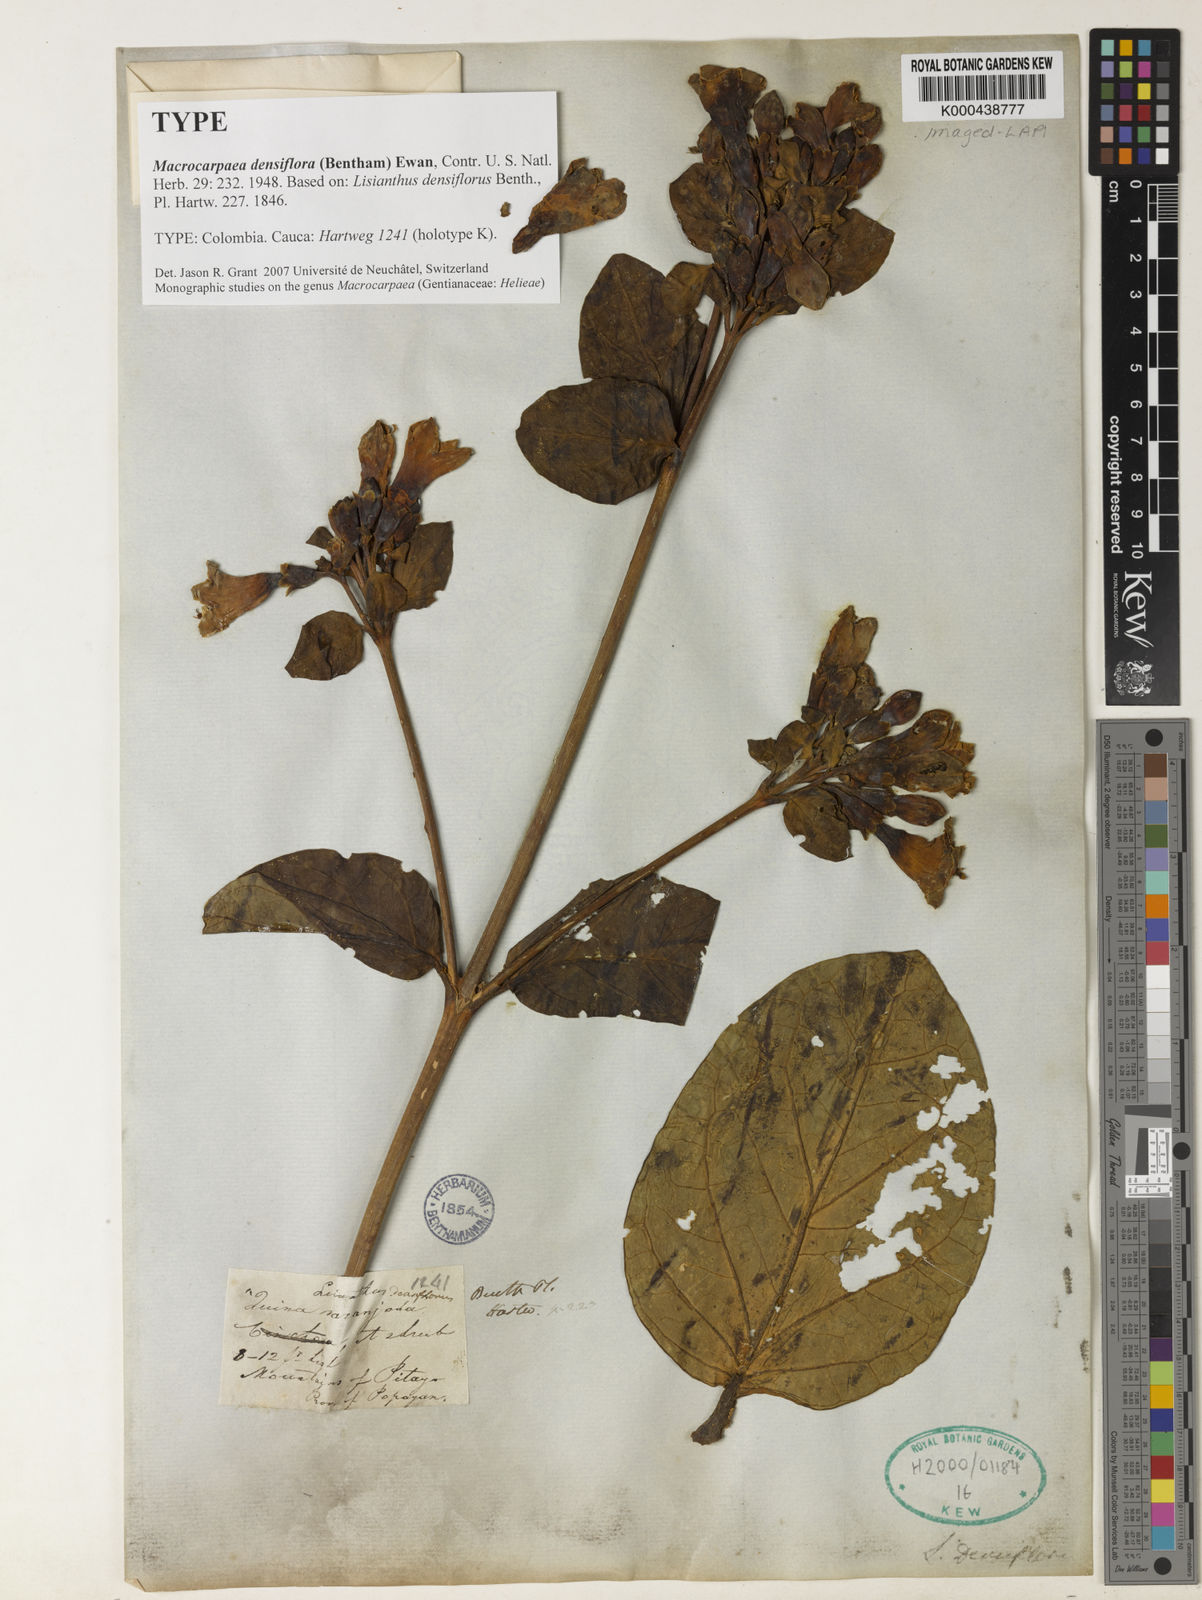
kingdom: Plantae
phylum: Tracheophyta
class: Magnoliopsida
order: Gentianales
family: Gentianaceae
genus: Macrocarpaea
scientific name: Macrocarpaea densiflora
